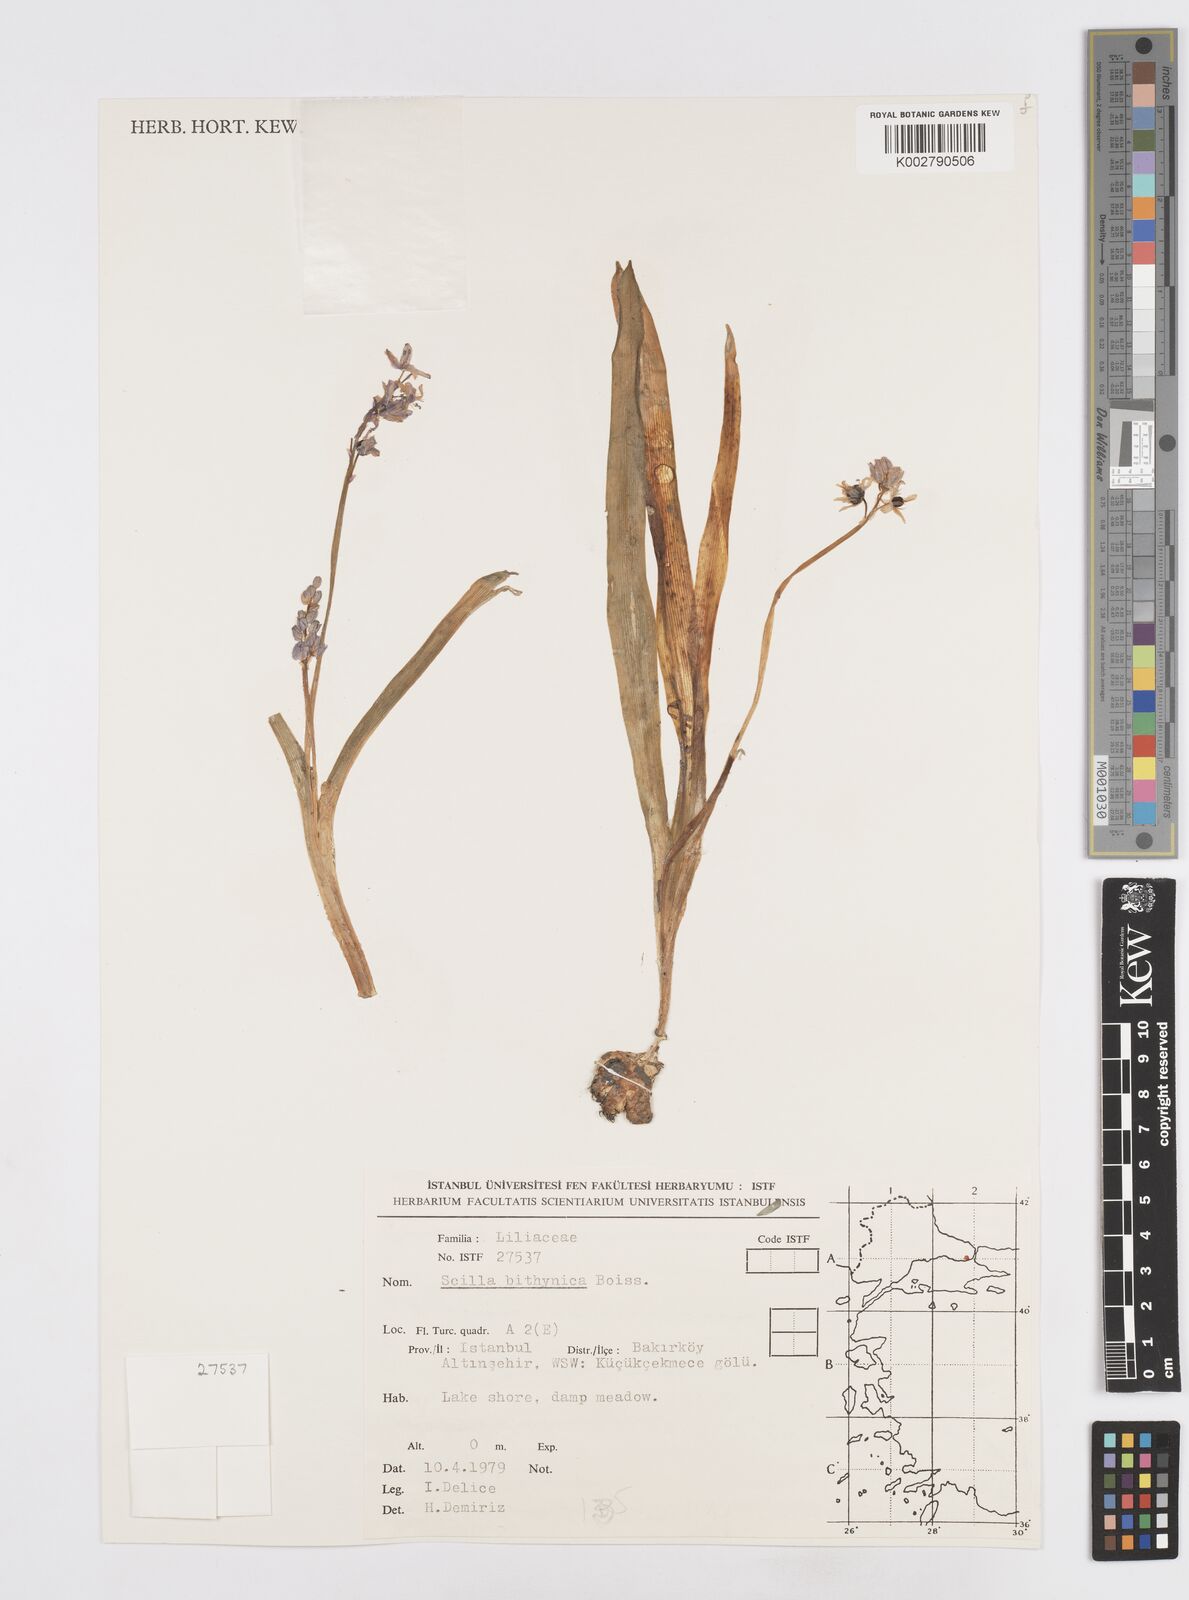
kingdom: Plantae
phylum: Tracheophyta
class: Liliopsida
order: Asparagales
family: Asparagaceae
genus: Scilla
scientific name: Scilla bithynica
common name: Turkish squill
